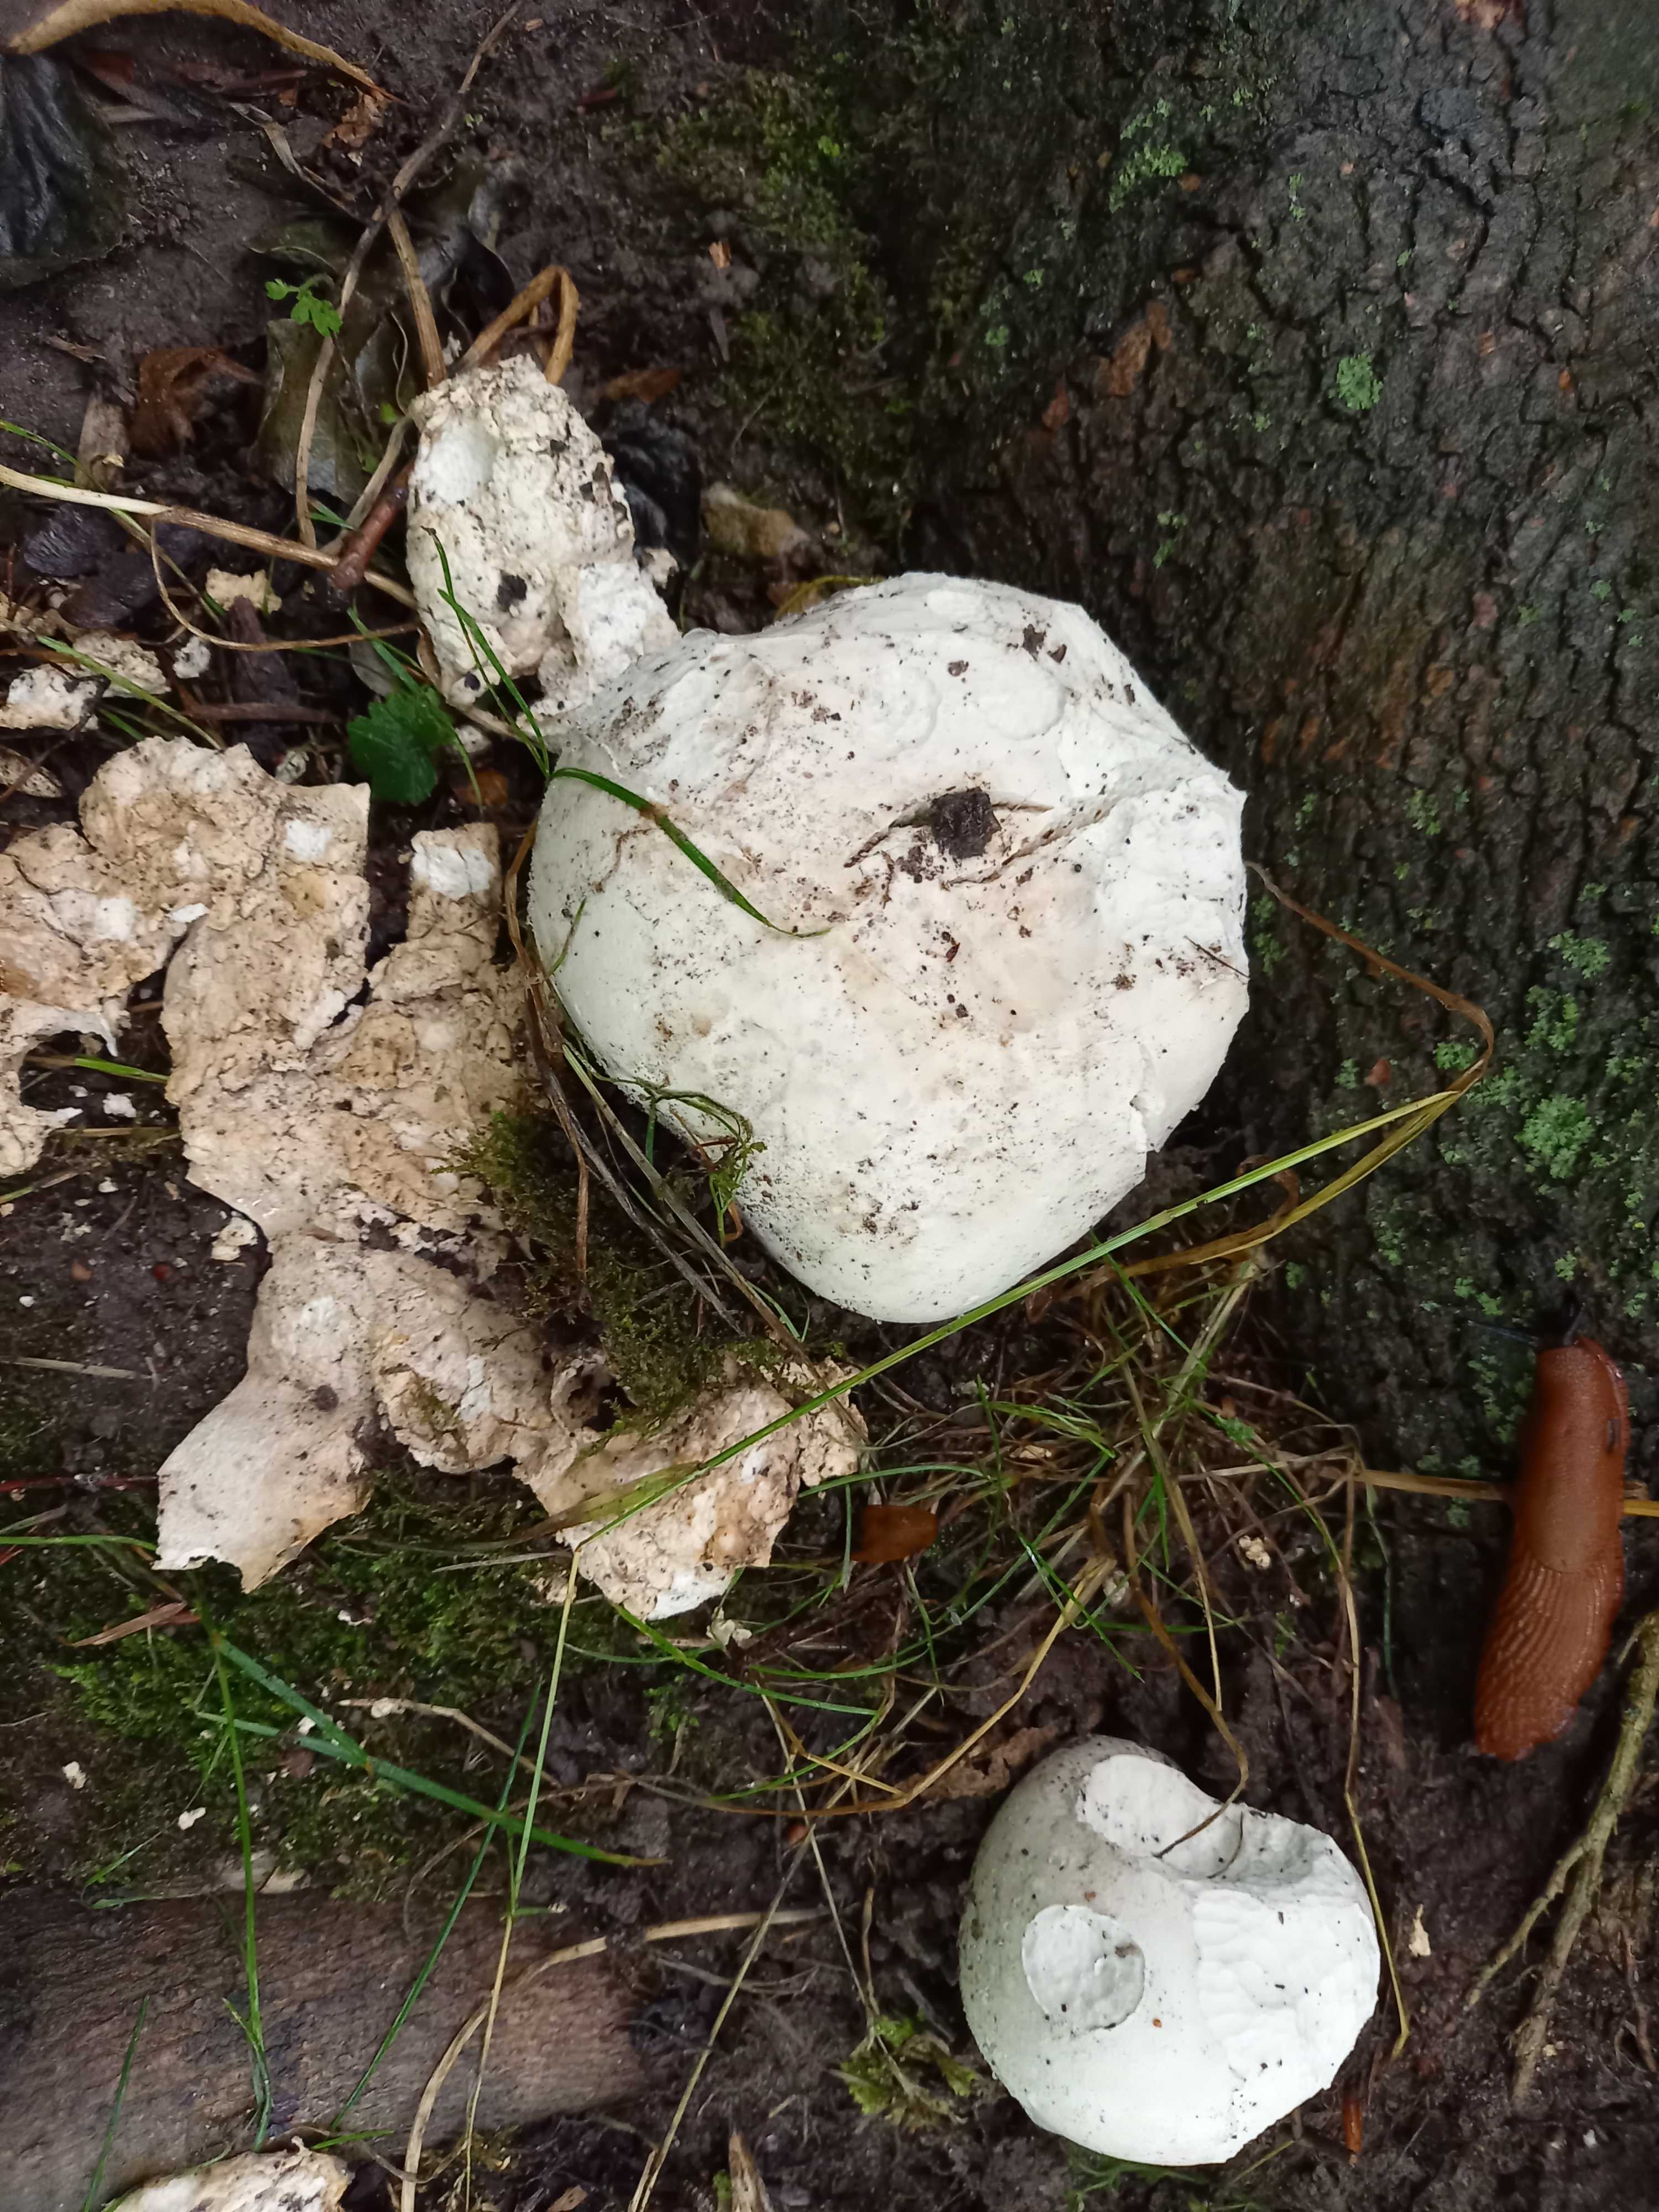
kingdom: Fungi
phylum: Basidiomycota
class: Agaricomycetes
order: Agaricales
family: Lycoperdaceae
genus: Calvatia
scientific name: Calvatia gigantea
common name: kæmpestøvbold
